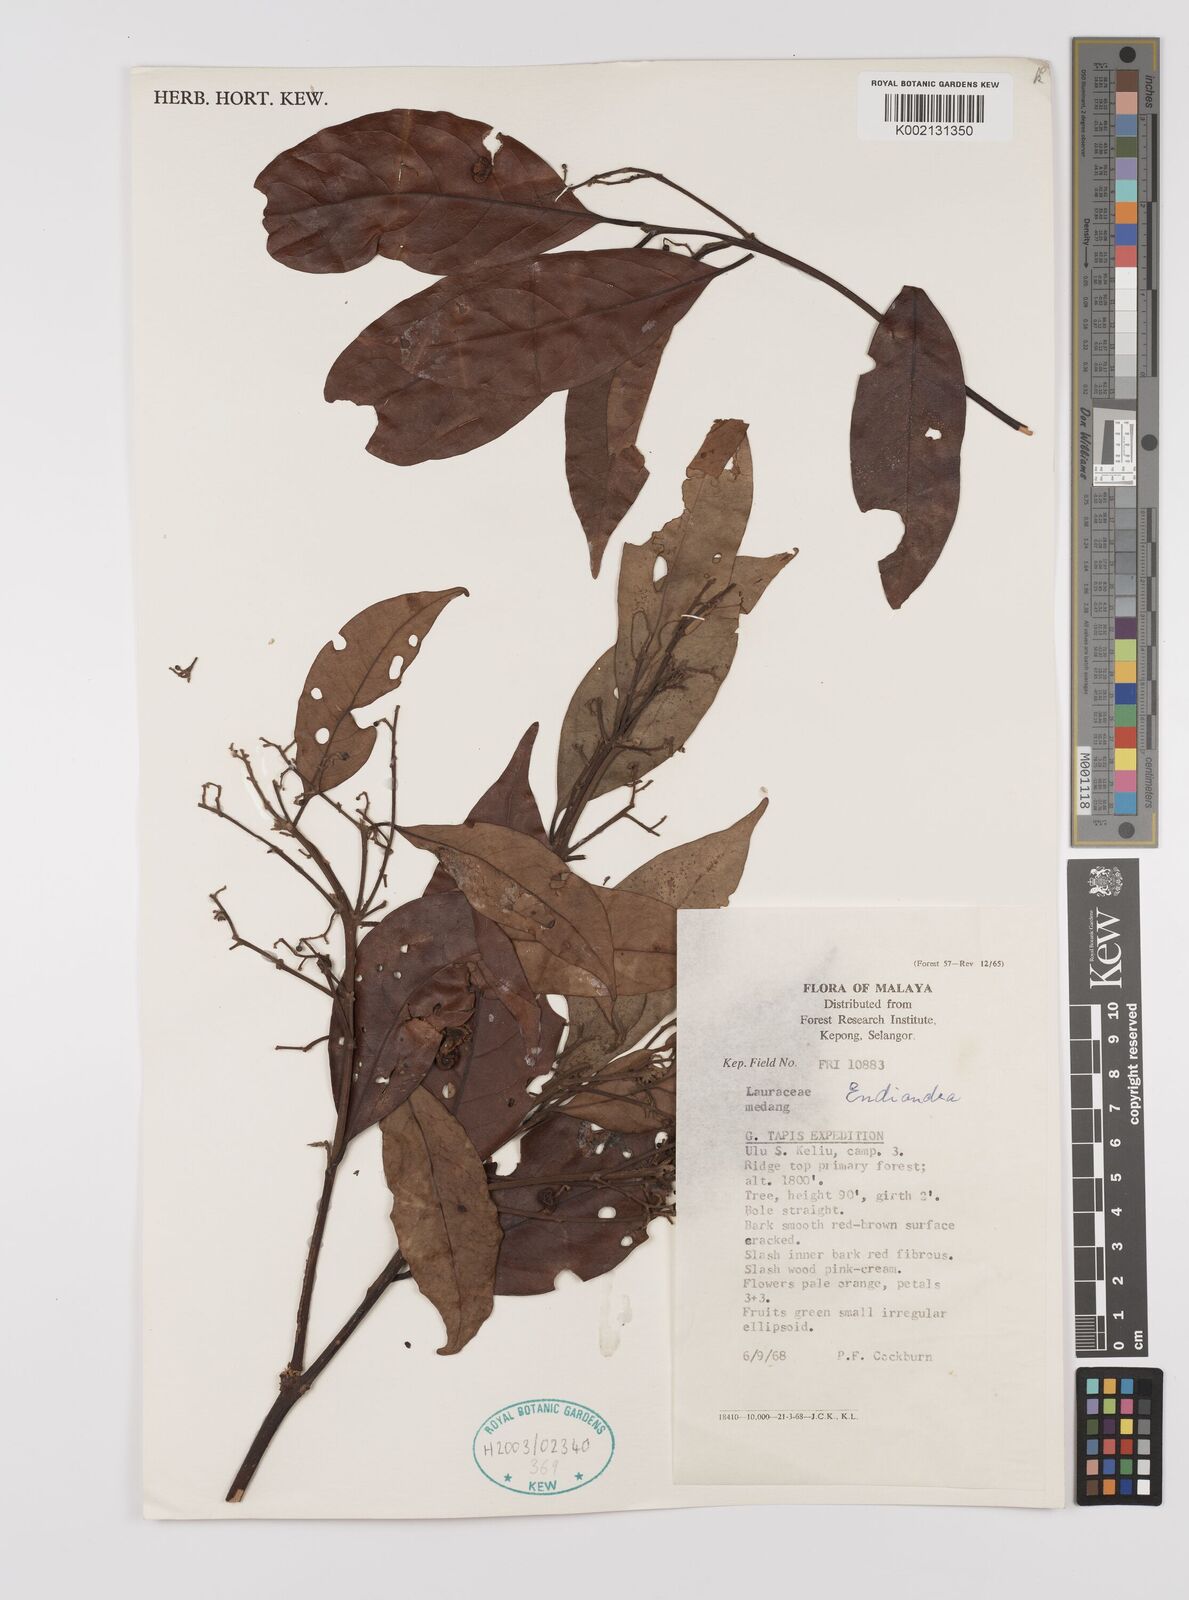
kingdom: Plantae
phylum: Tracheophyta
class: Magnoliopsida
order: Laurales
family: Lauraceae
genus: Endiandra
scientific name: Endiandra
